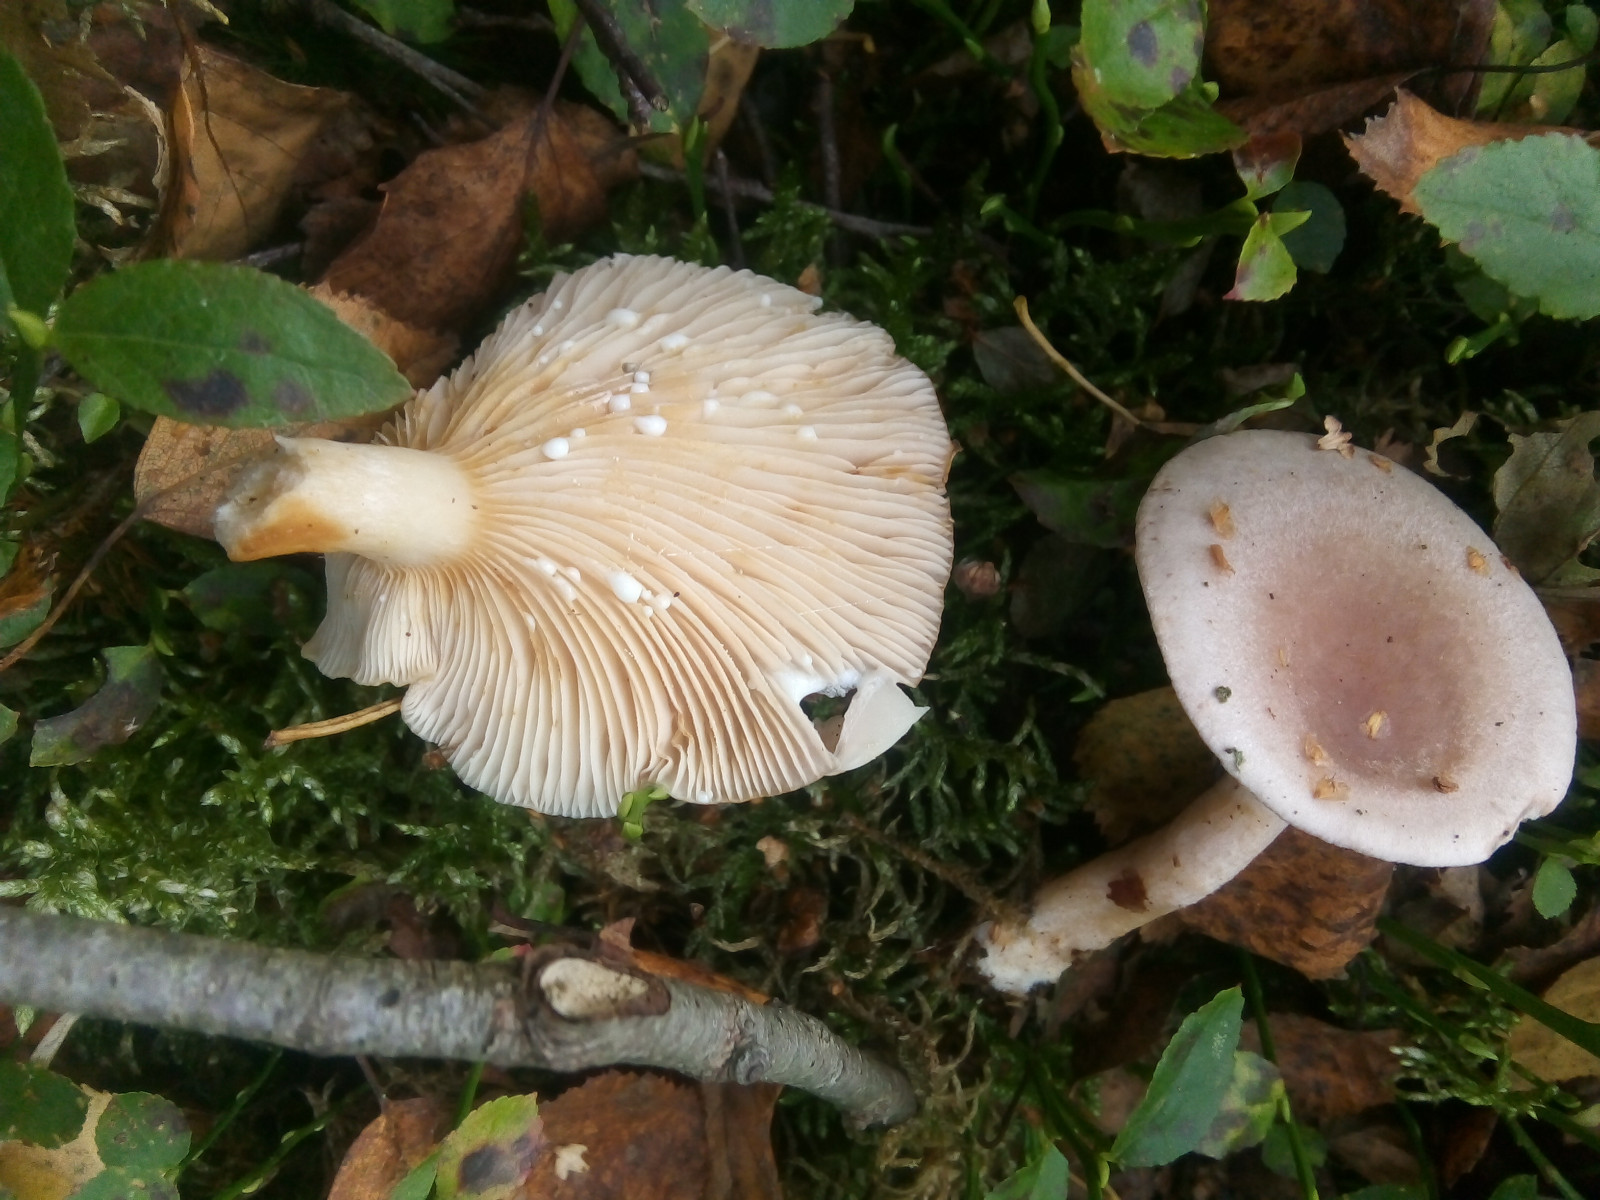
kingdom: Fungi
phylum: Basidiomycota
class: Agaricomycetes
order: Russulales
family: Russulaceae
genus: Lactarius
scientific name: Lactarius vietus
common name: violetgrå mælkehat
